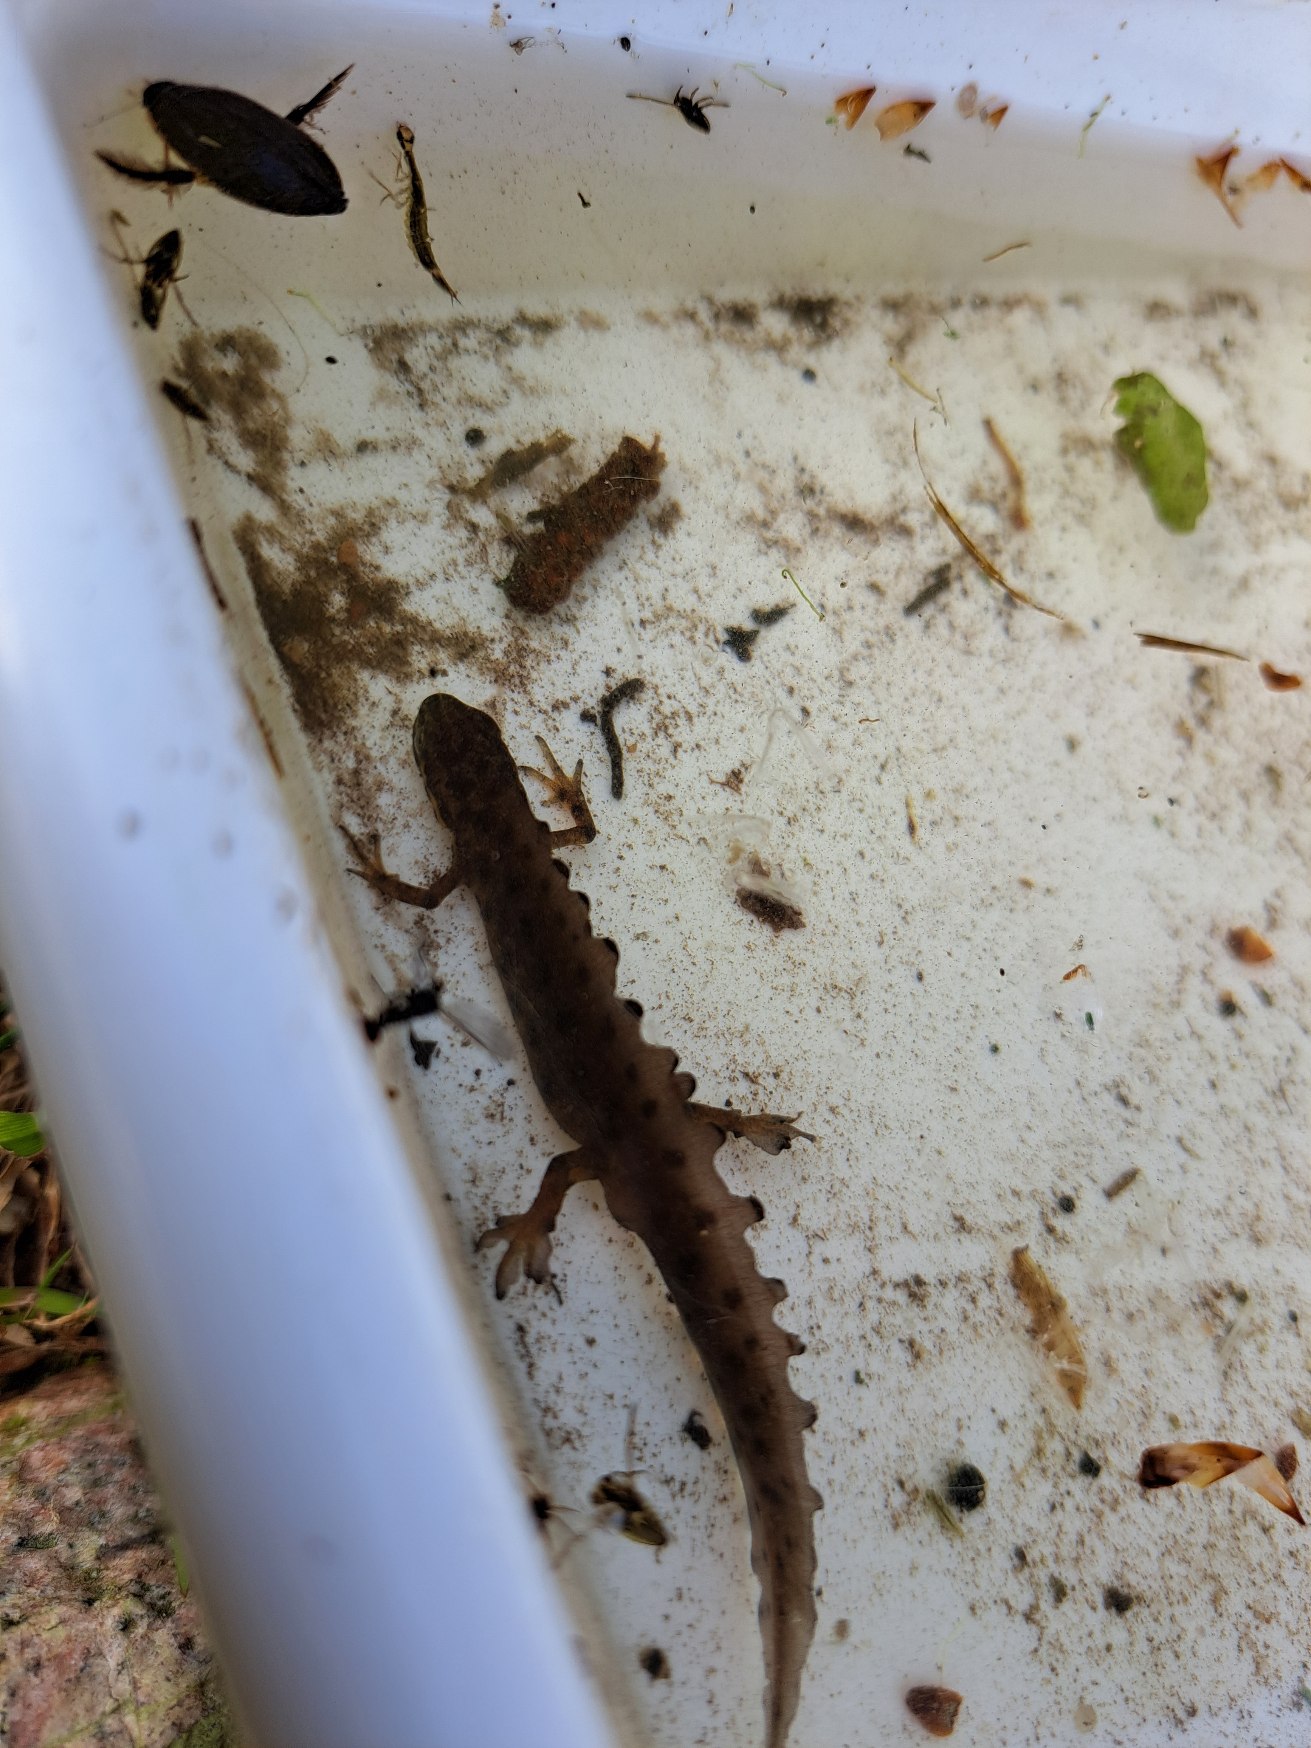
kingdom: Animalia
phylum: Chordata
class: Amphibia
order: Caudata
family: Salamandridae
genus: Lissotriton
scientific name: Lissotriton vulgaris
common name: Lille vandsalamander
